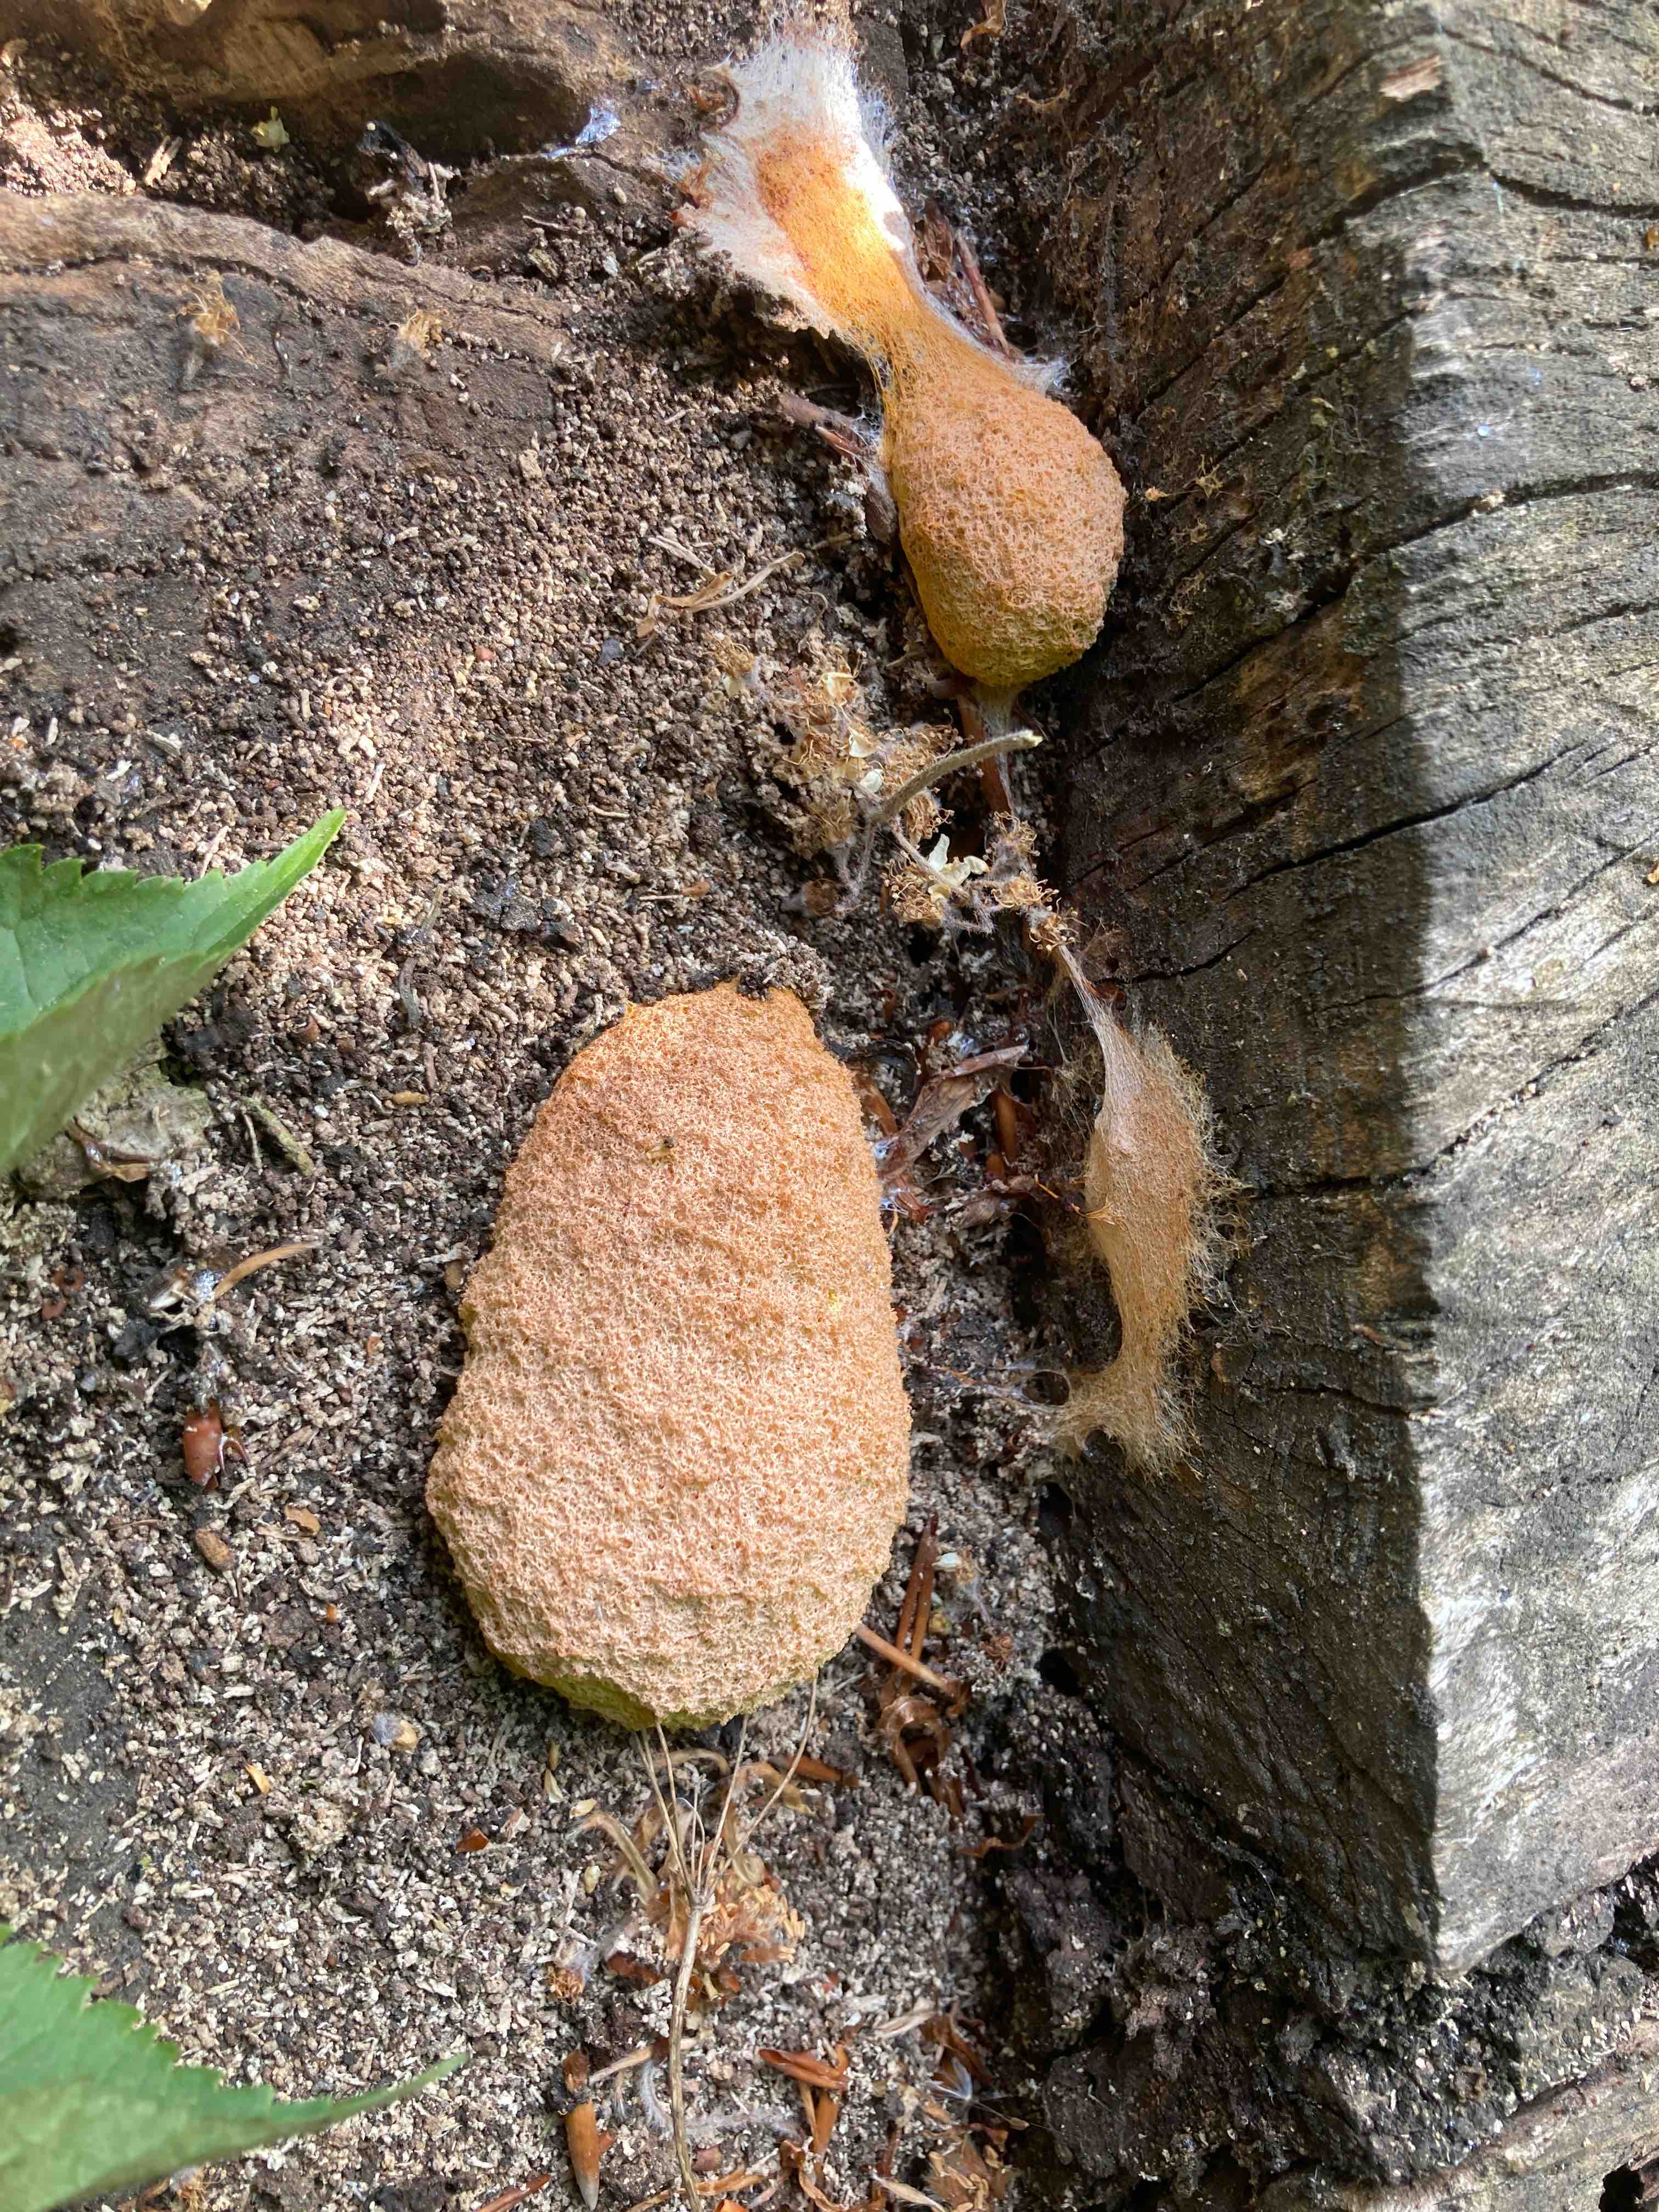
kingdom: Protozoa
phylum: Mycetozoa
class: Myxomycetes
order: Physarales
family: Physaraceae
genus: Fuligo
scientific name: Fuligo septica
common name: Dog vomit slime mold
